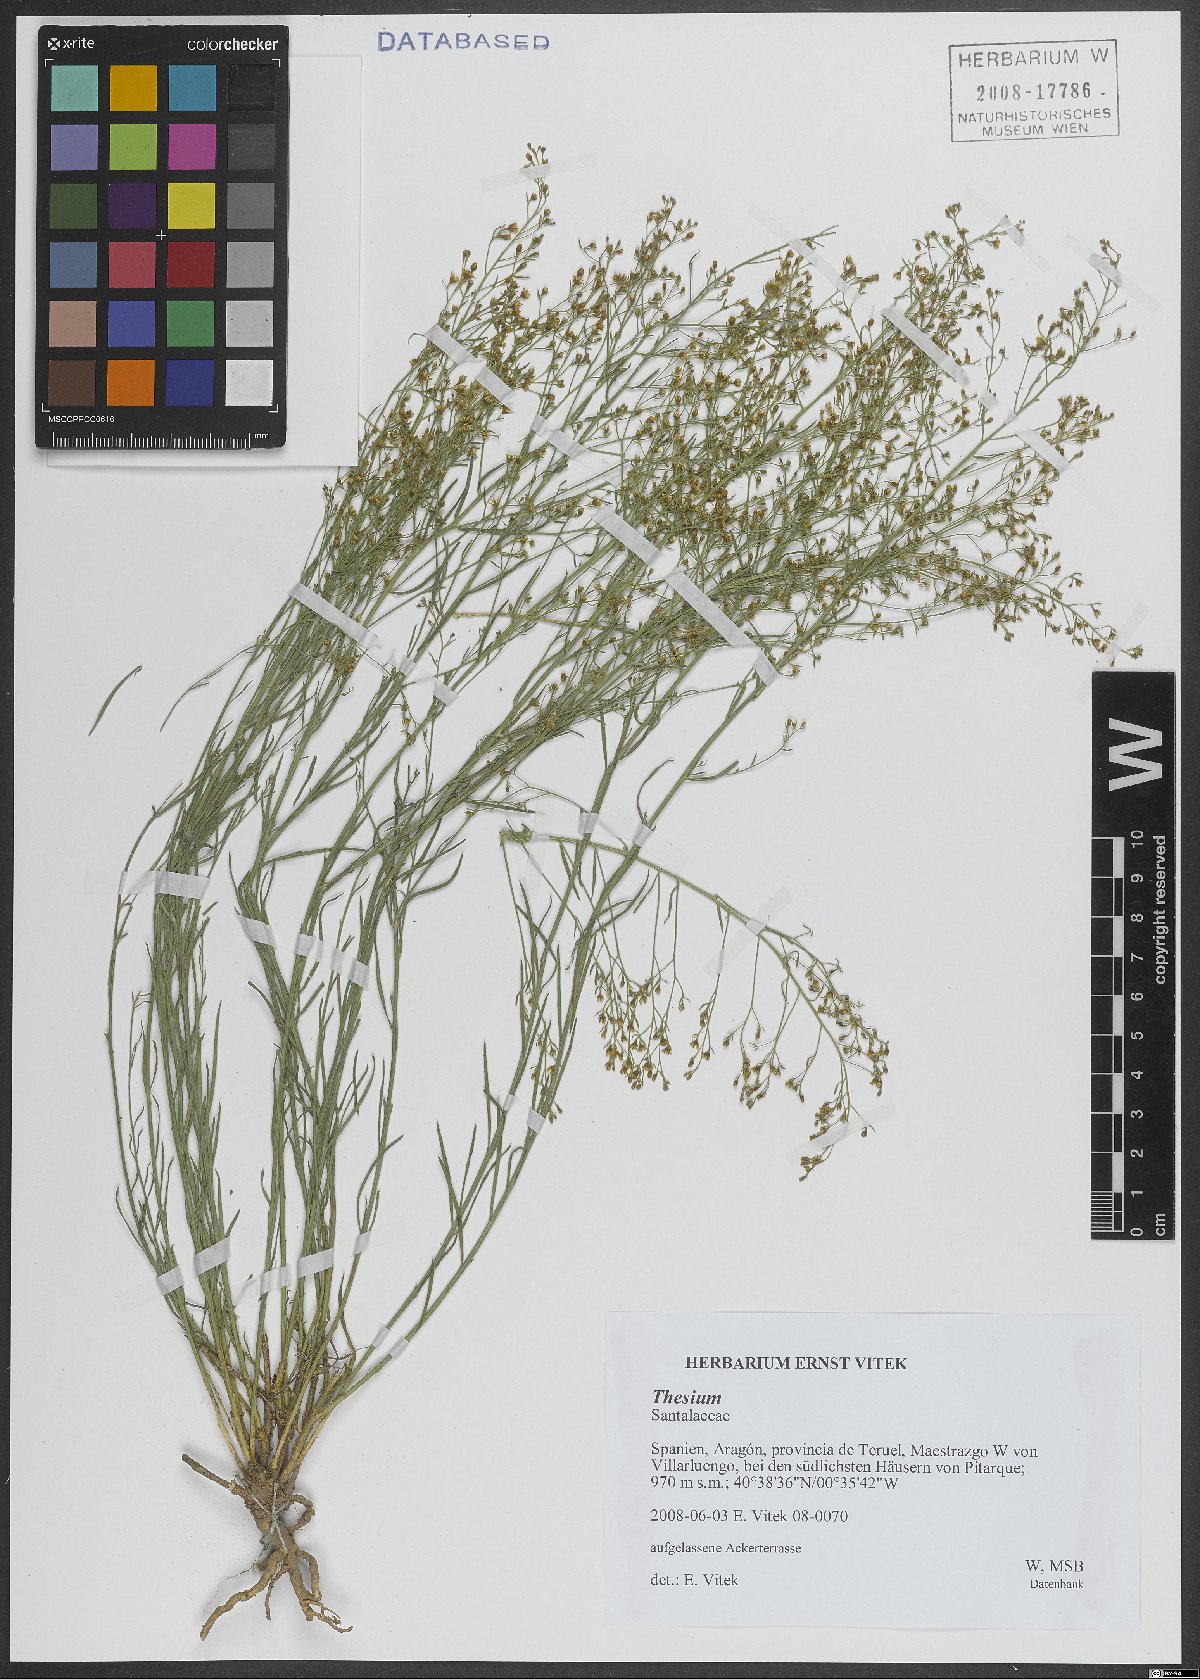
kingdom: Plantae
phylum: Tracheophyta
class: Magnoliopsida
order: Santalales
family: Thesiaceae
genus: Thesium
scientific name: Thesium
